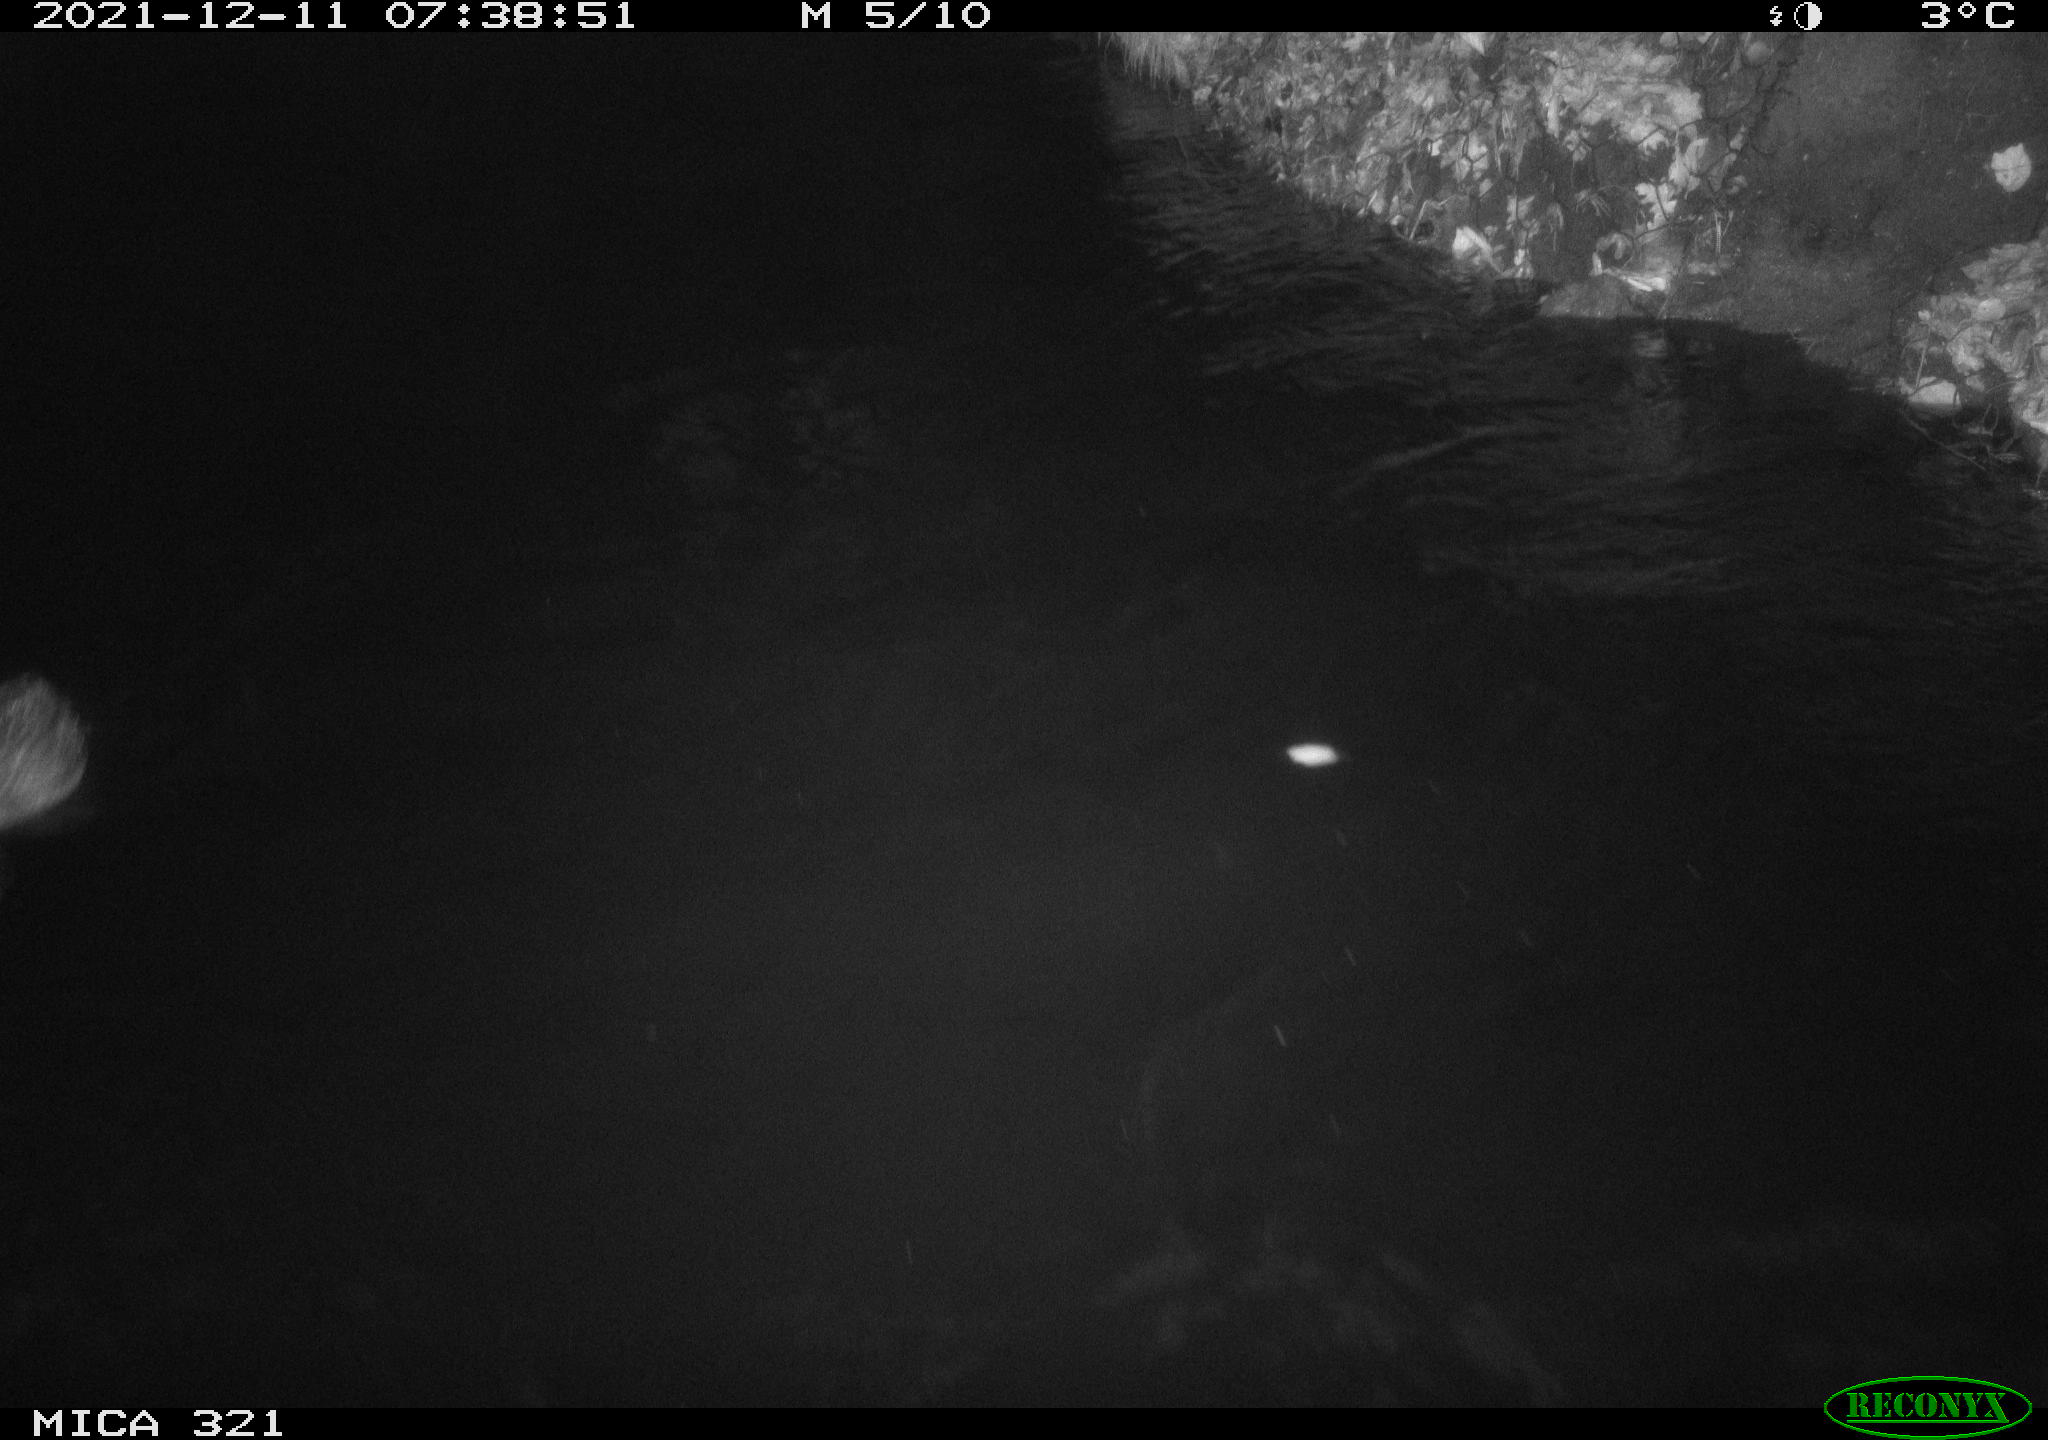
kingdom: Animalia
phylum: Chordata
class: Aves
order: Anseriformes
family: Anatidae
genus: Anas
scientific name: Anas
